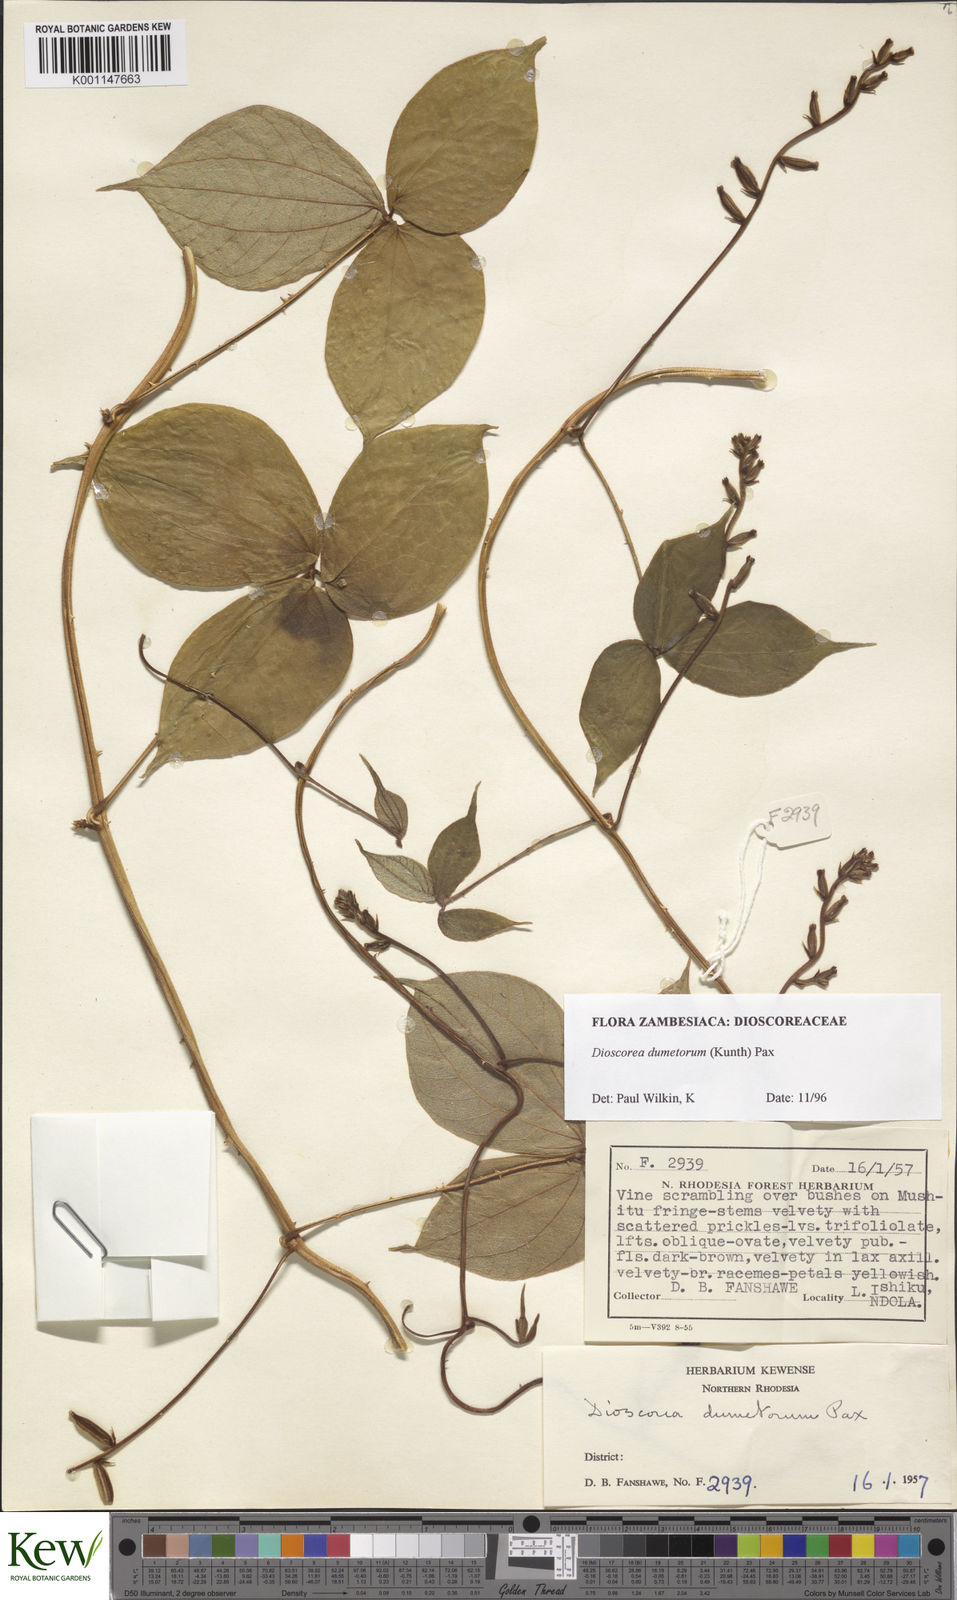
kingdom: Plantae
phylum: Tracheophyta
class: Liliopsida
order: Dioscoreales
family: Dioscoreaceae
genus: Dioscorea
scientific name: Dioscorea dumetorum
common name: African bitter yam
